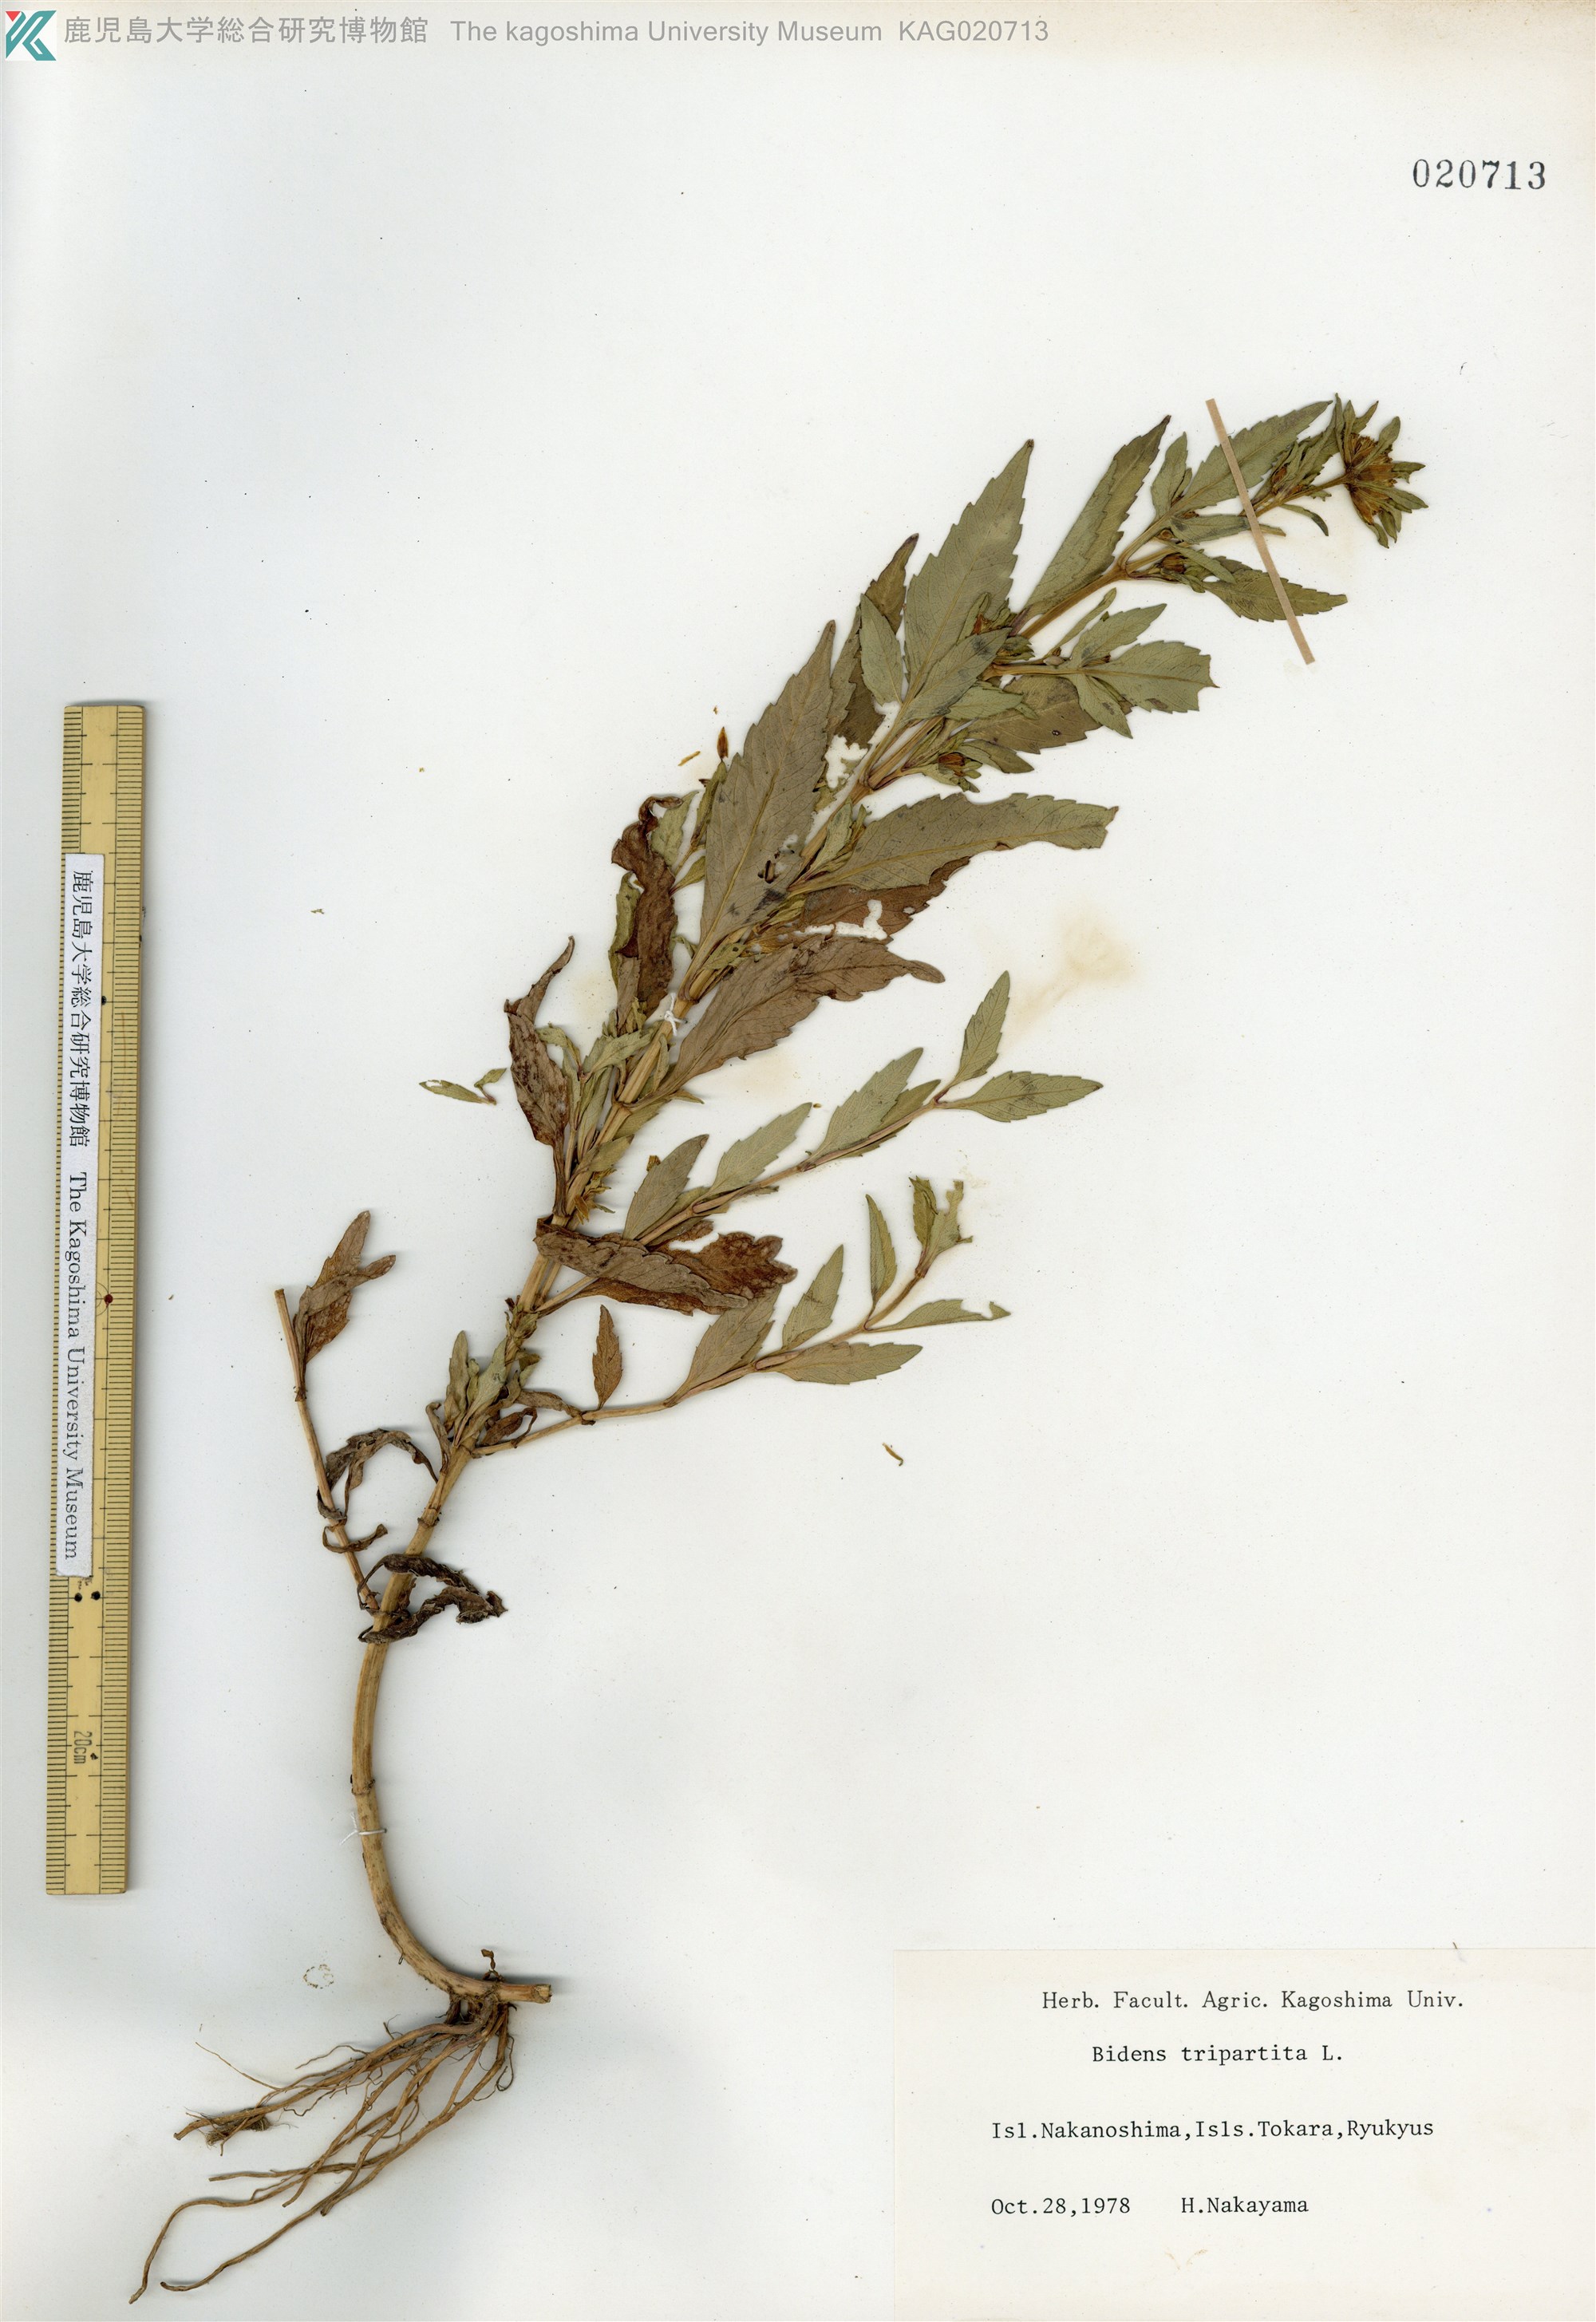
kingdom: Plantae
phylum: Tracheophyta
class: Magnoliopsida
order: Asterales
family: Asteraceae
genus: Bidens
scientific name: Bidens tripartita
